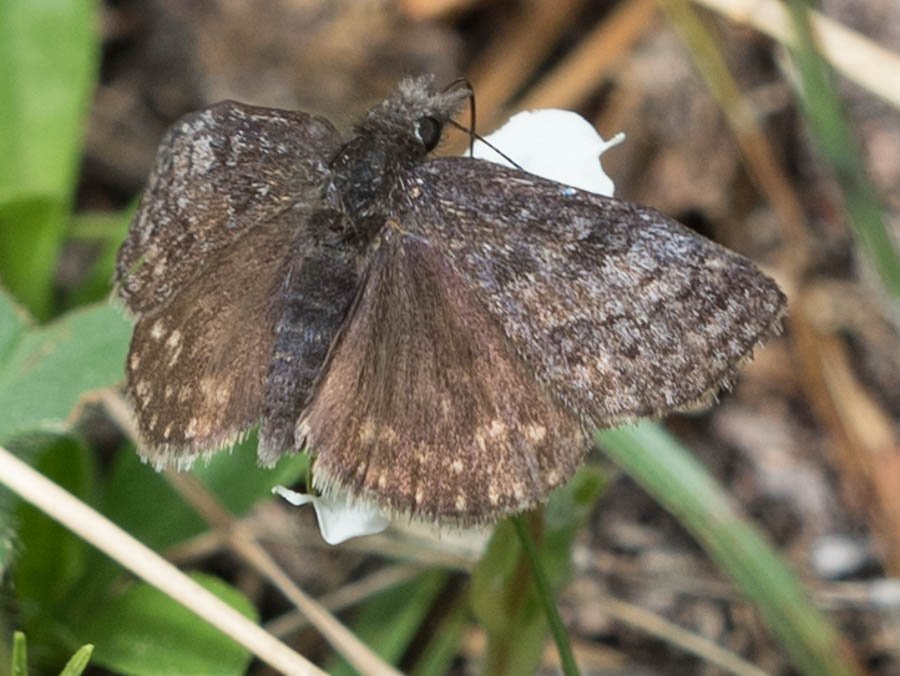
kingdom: Animalia
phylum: Arthropoda
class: Insecta
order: Lepidoptera
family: Hesperiidae
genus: Erynnis
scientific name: Erynnis icelus
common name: Dreamy Duskywing
